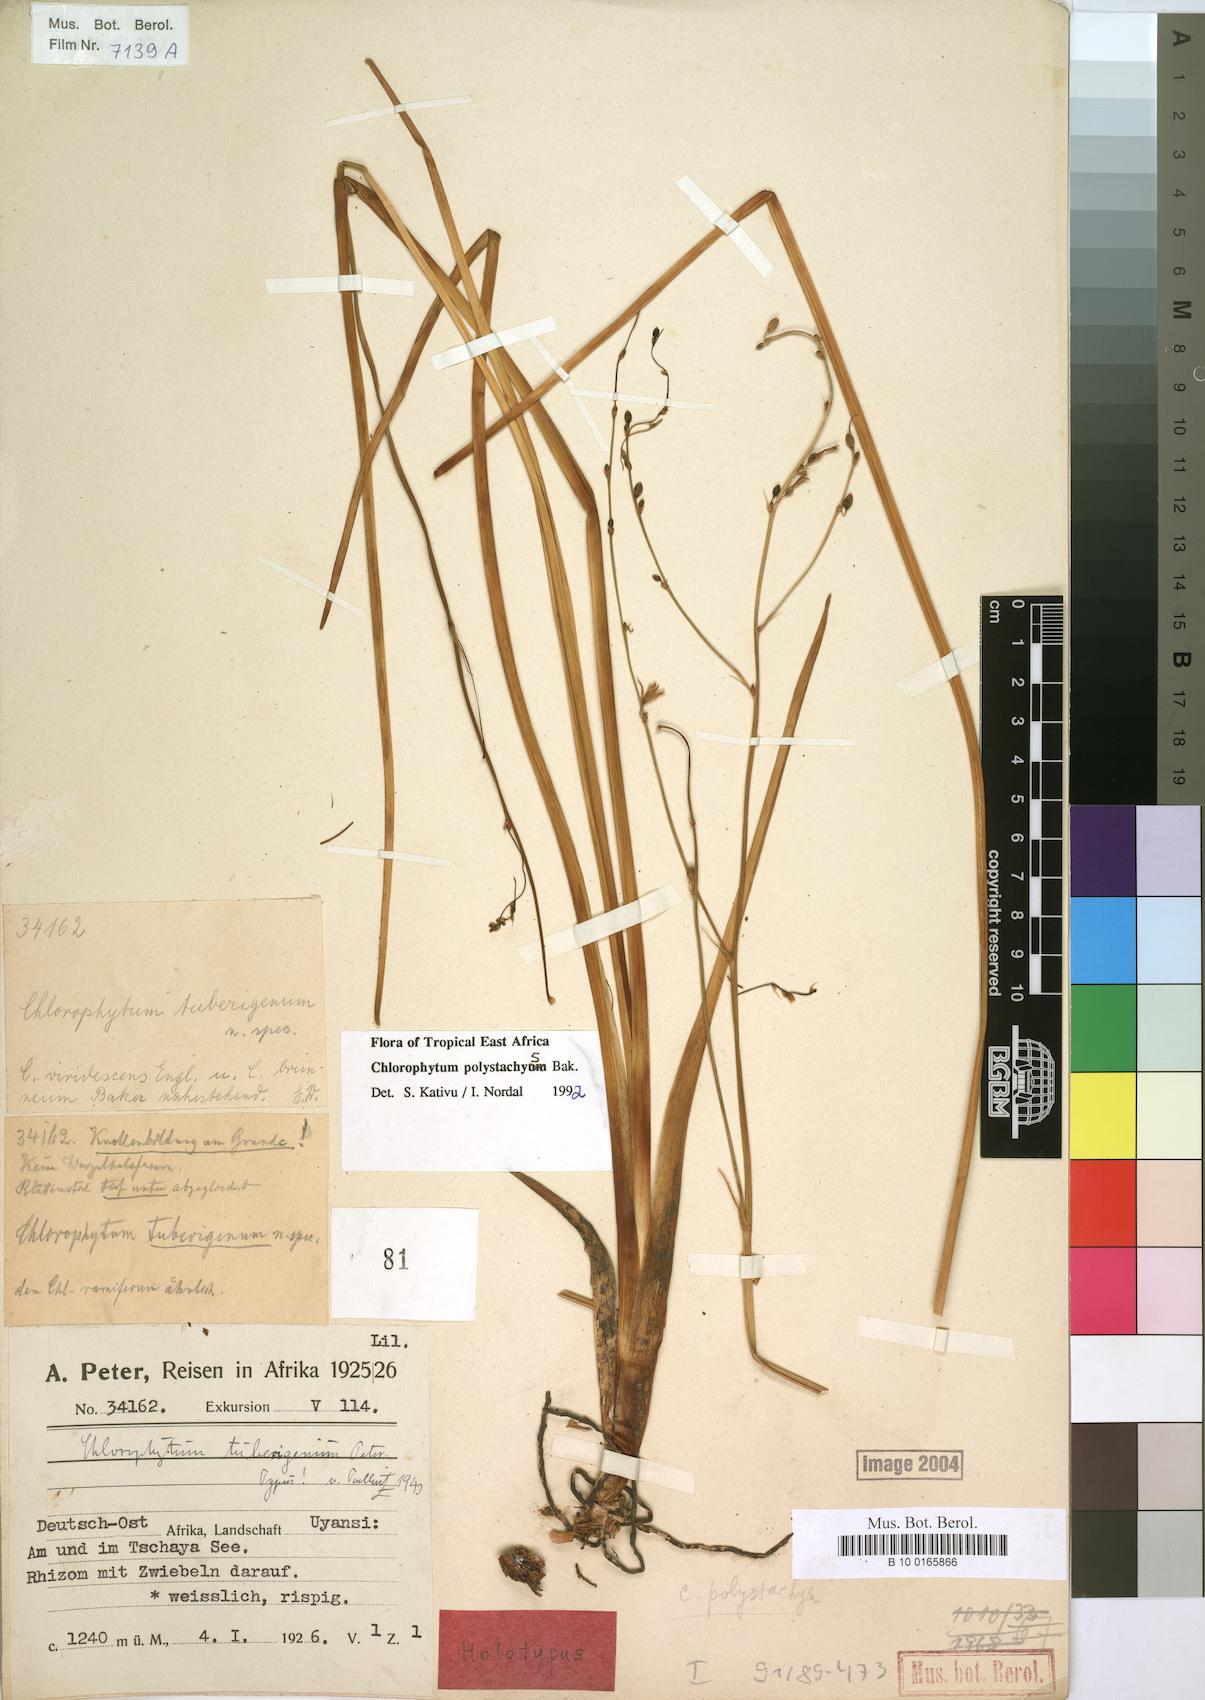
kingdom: Plantae
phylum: Tracheophyta
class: Liliopsida
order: Asparagales
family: Asparagaceae
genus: Chlorophytum
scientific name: Chlorophytum polystachys
